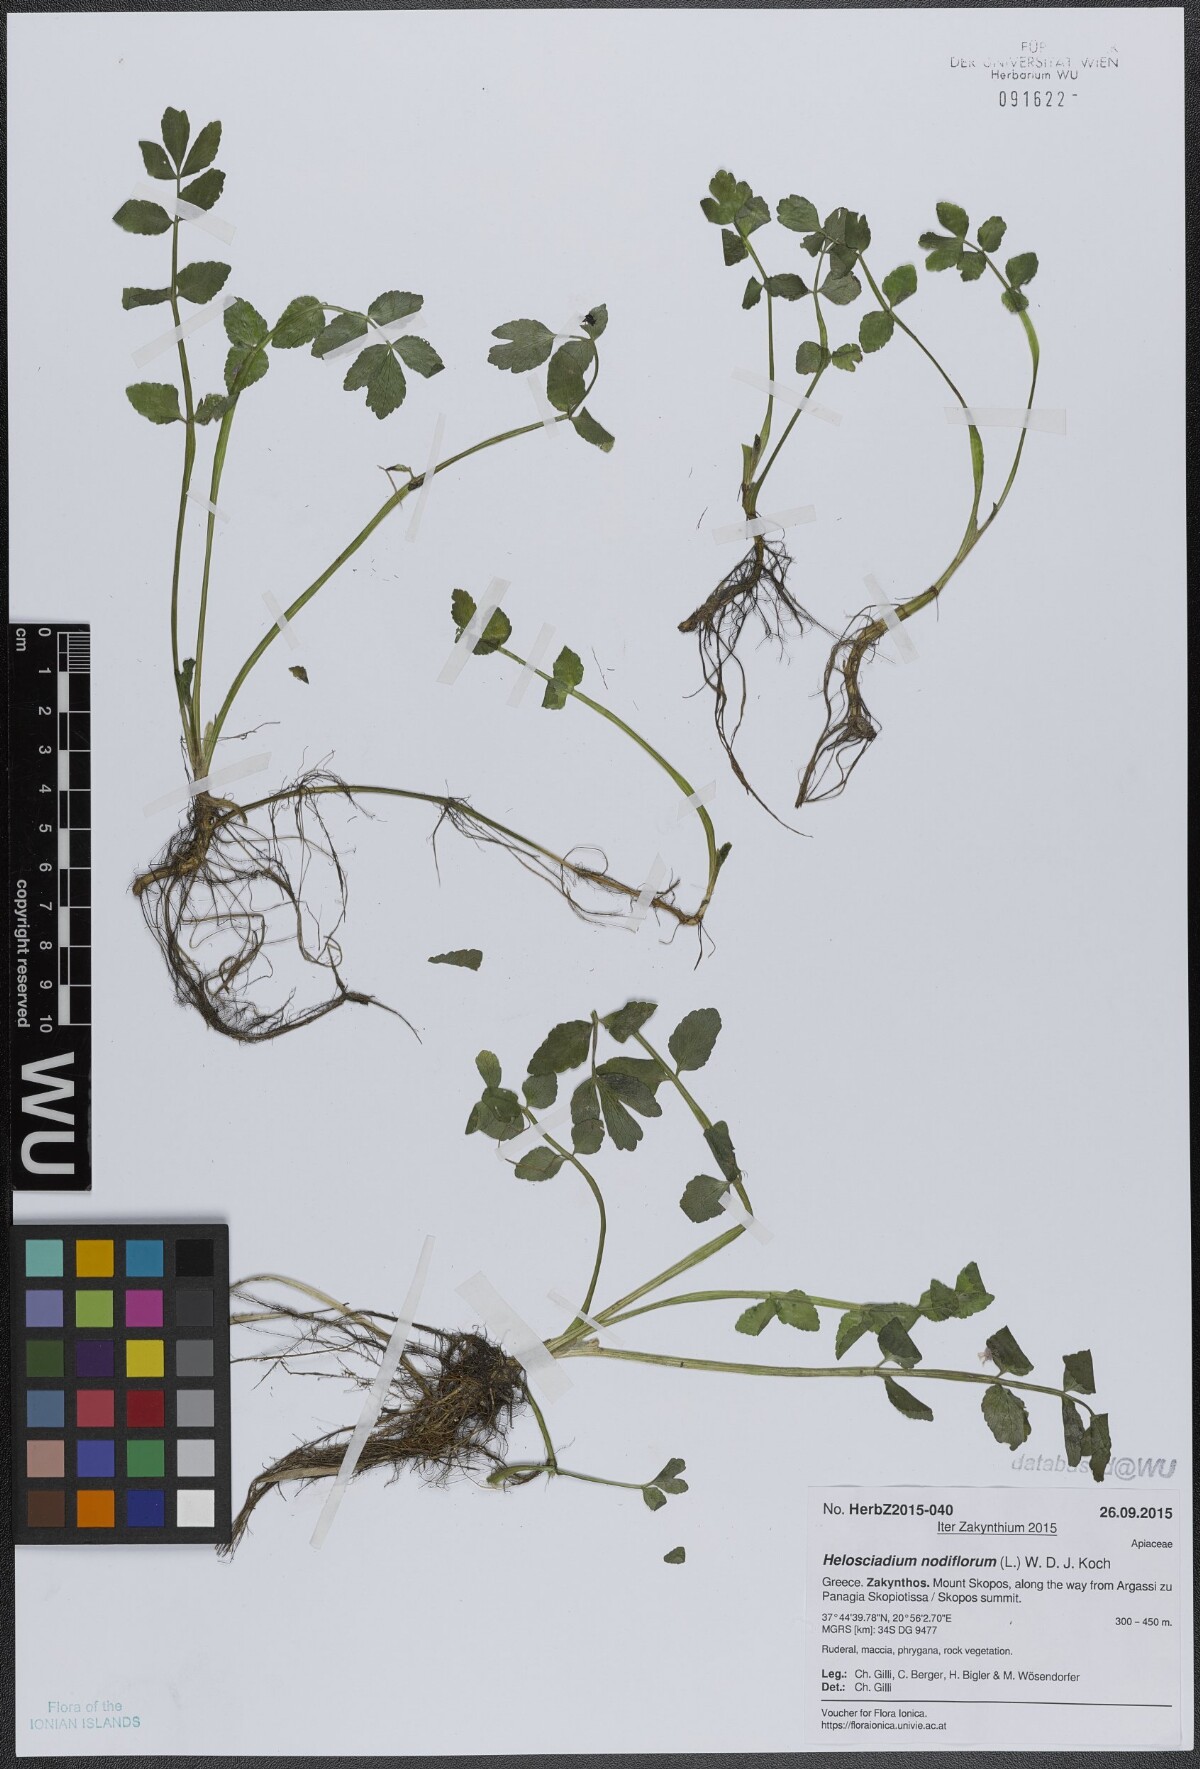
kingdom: Plantae
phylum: Tracheophyta
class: Magnoliopsida
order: Apiales
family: Apiaceae
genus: Helosciadium
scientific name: Helosciadium nodiflorum
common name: Fool's-watercress
